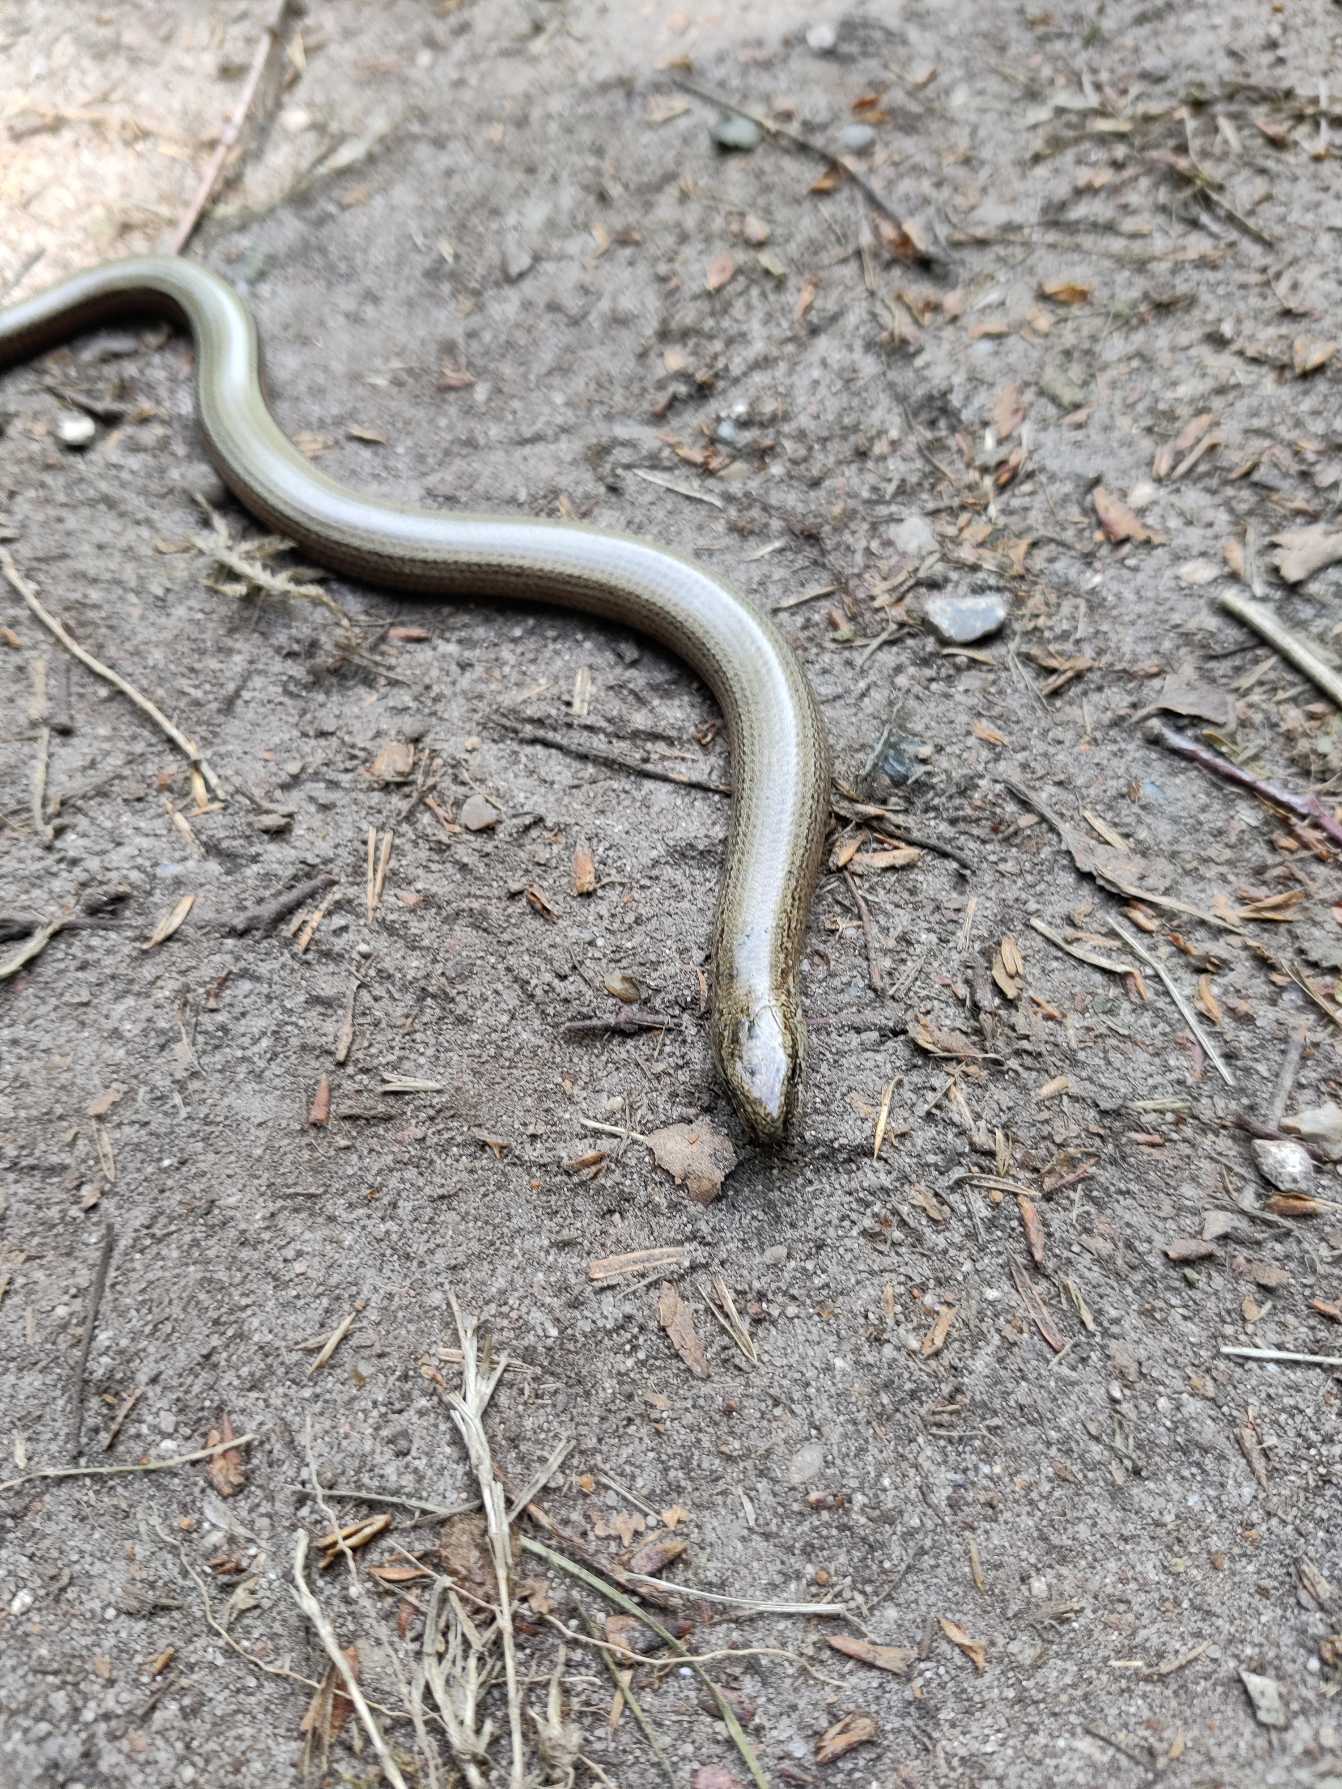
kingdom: Animalia
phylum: Chordata
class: Squamata
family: Anguidae
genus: Anguis
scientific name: Anguis fragilis
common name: Stålorm
